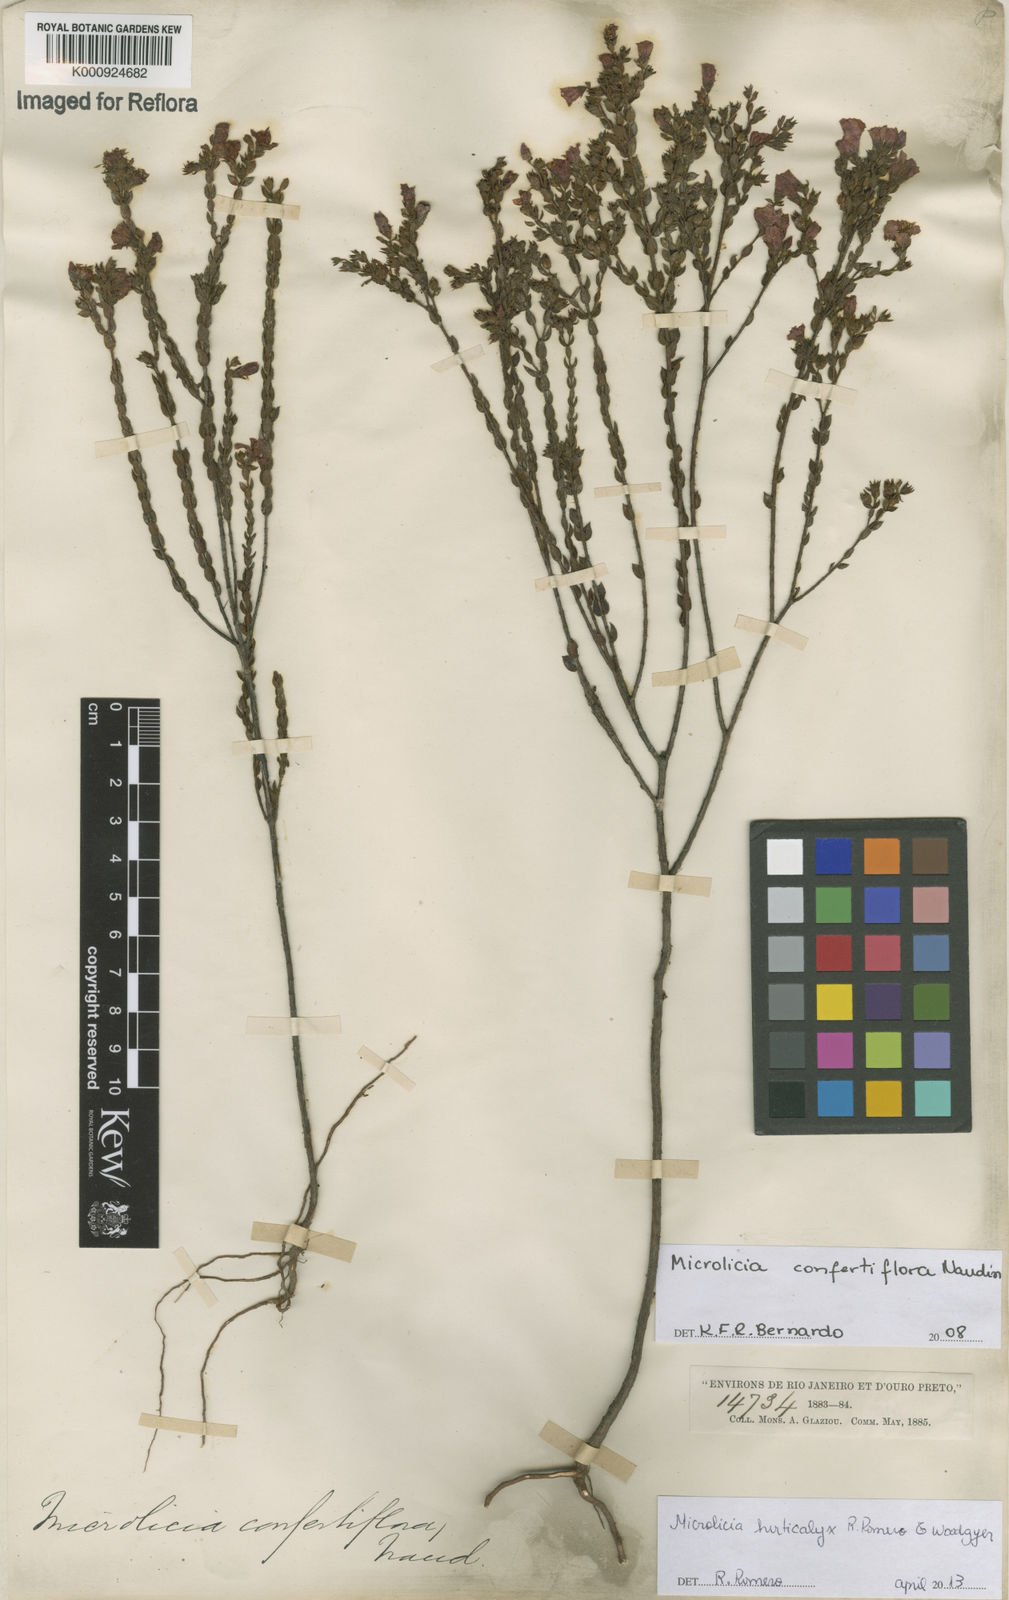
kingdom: Plantae
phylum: Tracheophyta
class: Magnoliopsida
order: Myrtales
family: Melastomataceae
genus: Microlicia
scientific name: Microlicia hirticalyx
